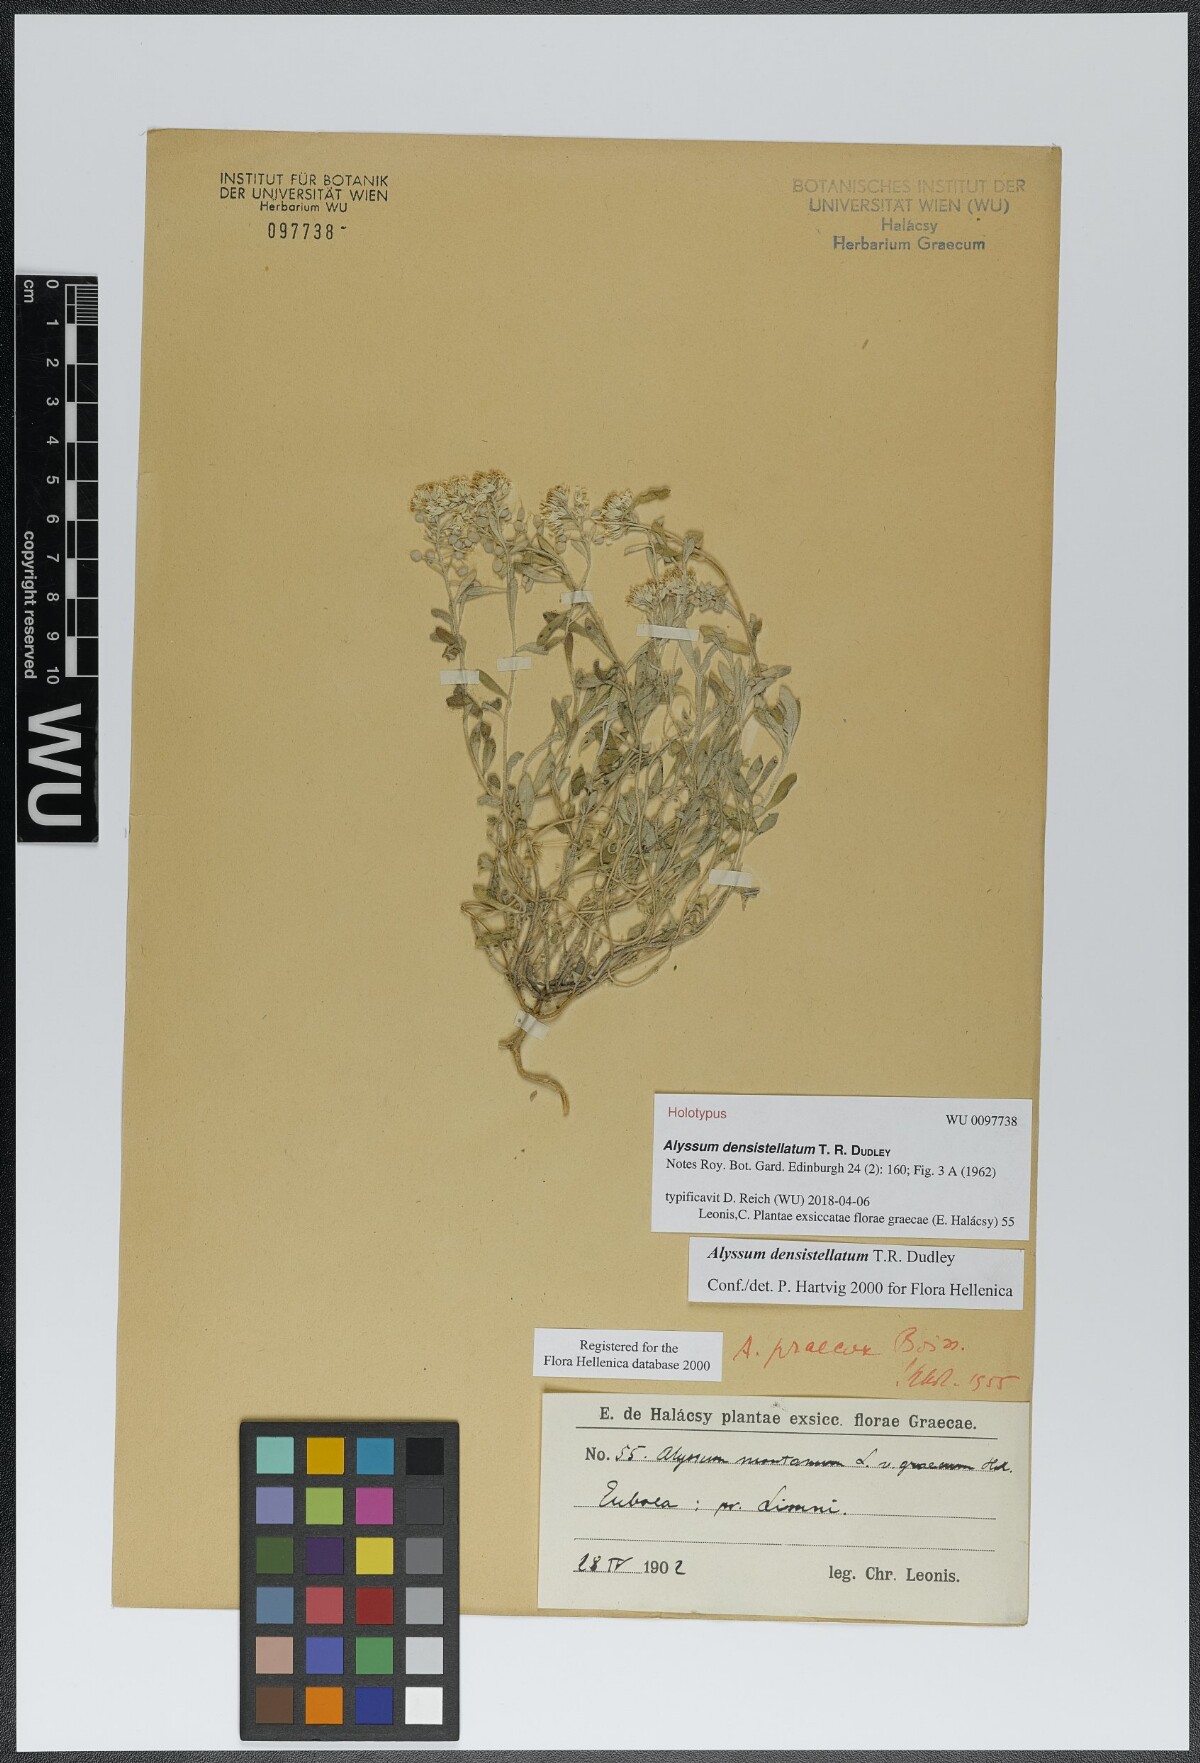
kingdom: Plantae
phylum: Tracheophyta
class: Magnoliopsida
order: Brassicales
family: Brassicaceae
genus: Alyssum
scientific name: Alyssum densistellatum
